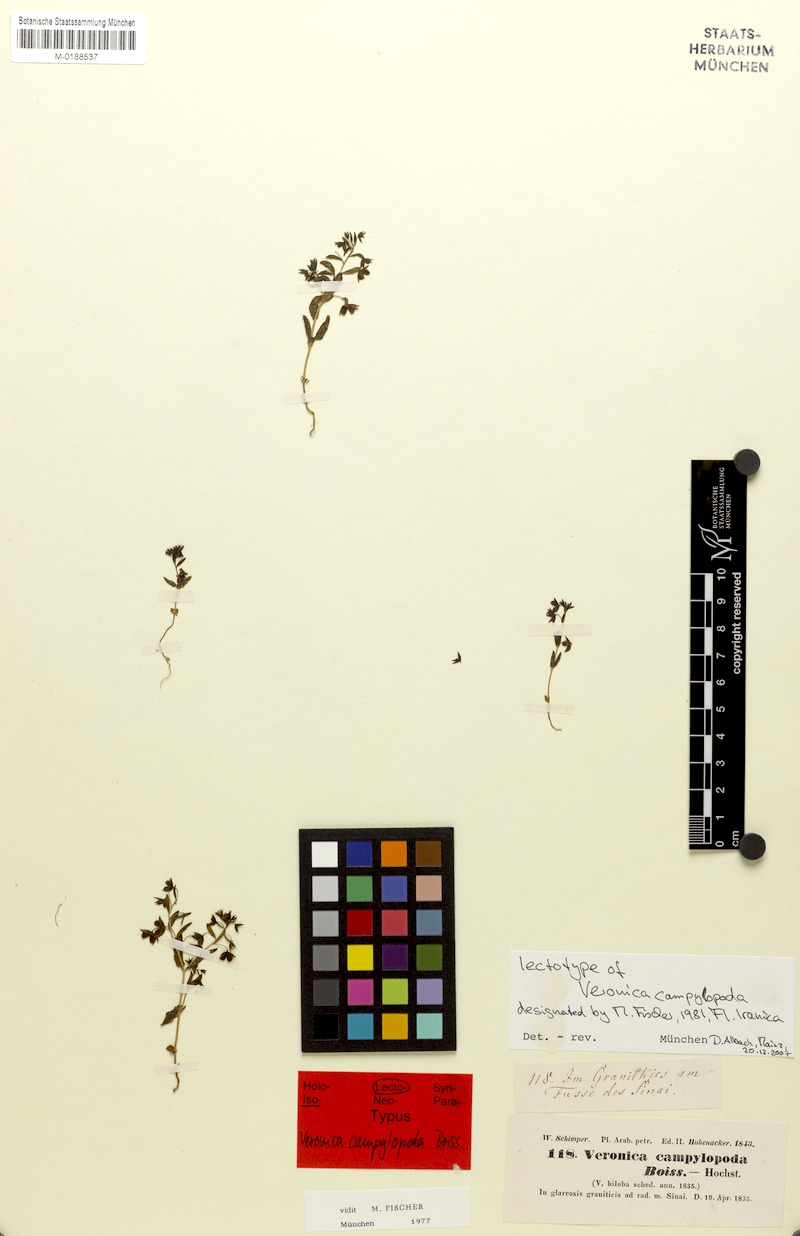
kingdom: Plantae
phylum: Tracheophyta
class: Magnoliopsida
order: Lamiales
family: Plantaginaceae
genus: Veronica
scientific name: Veronica campylopoda
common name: Bent-foot speedwell
